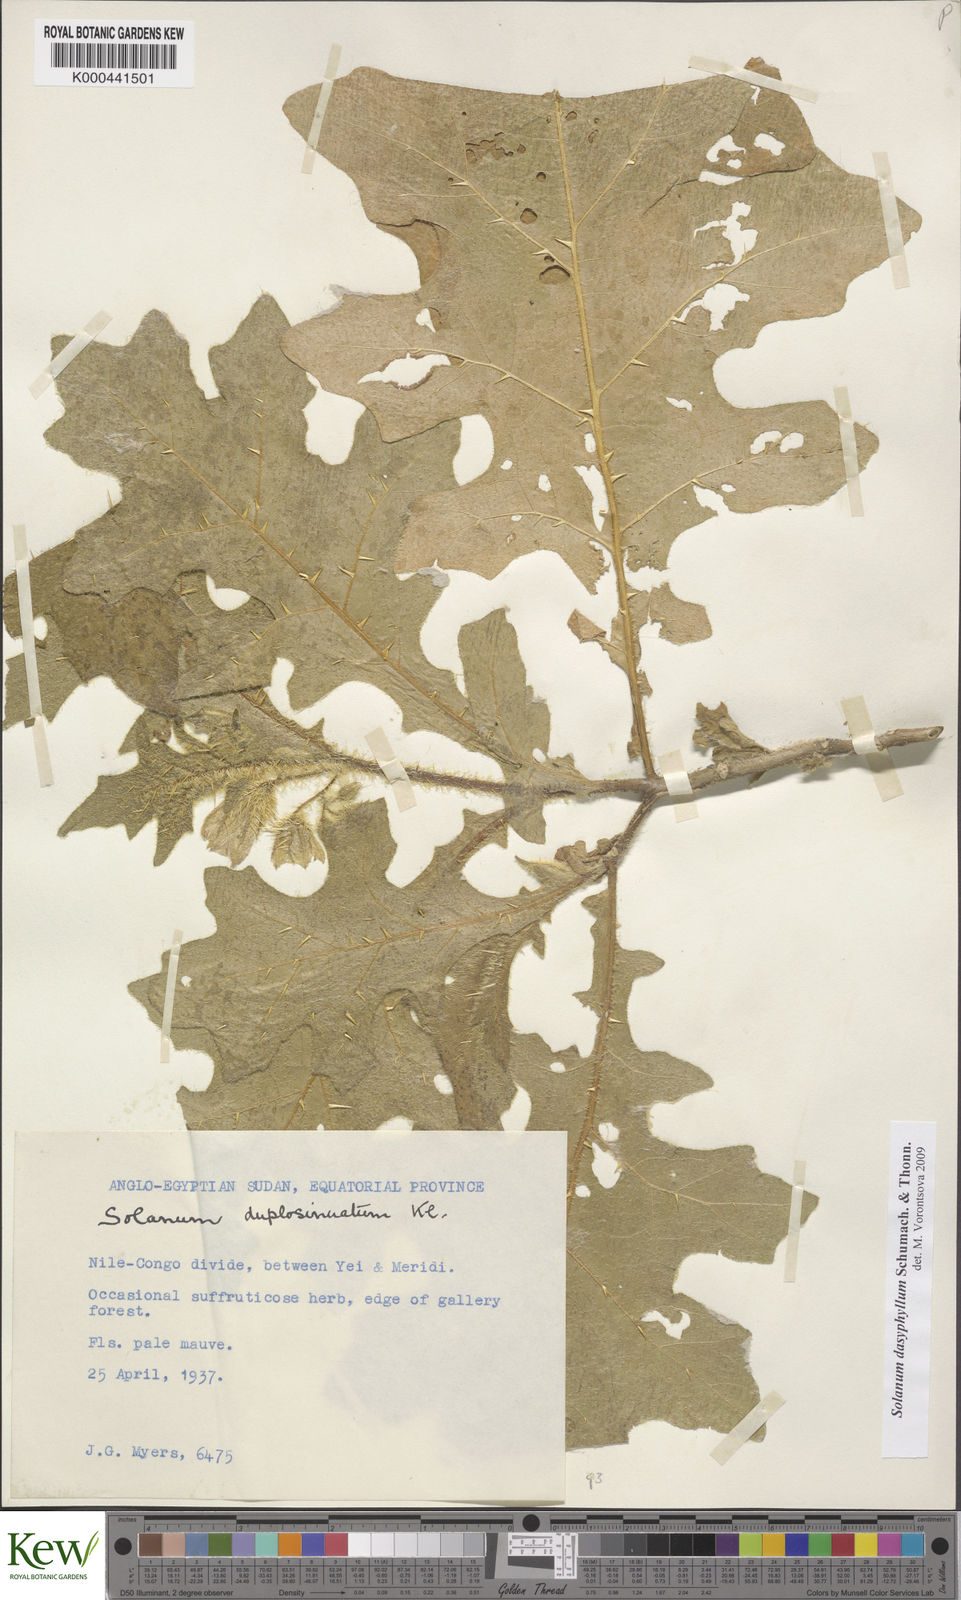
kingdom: Plantae
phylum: Tracheophyta
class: Magnoliopsida
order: Solanales
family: Solanaceae
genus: Solanum
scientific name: Solanum dasyphyllum
